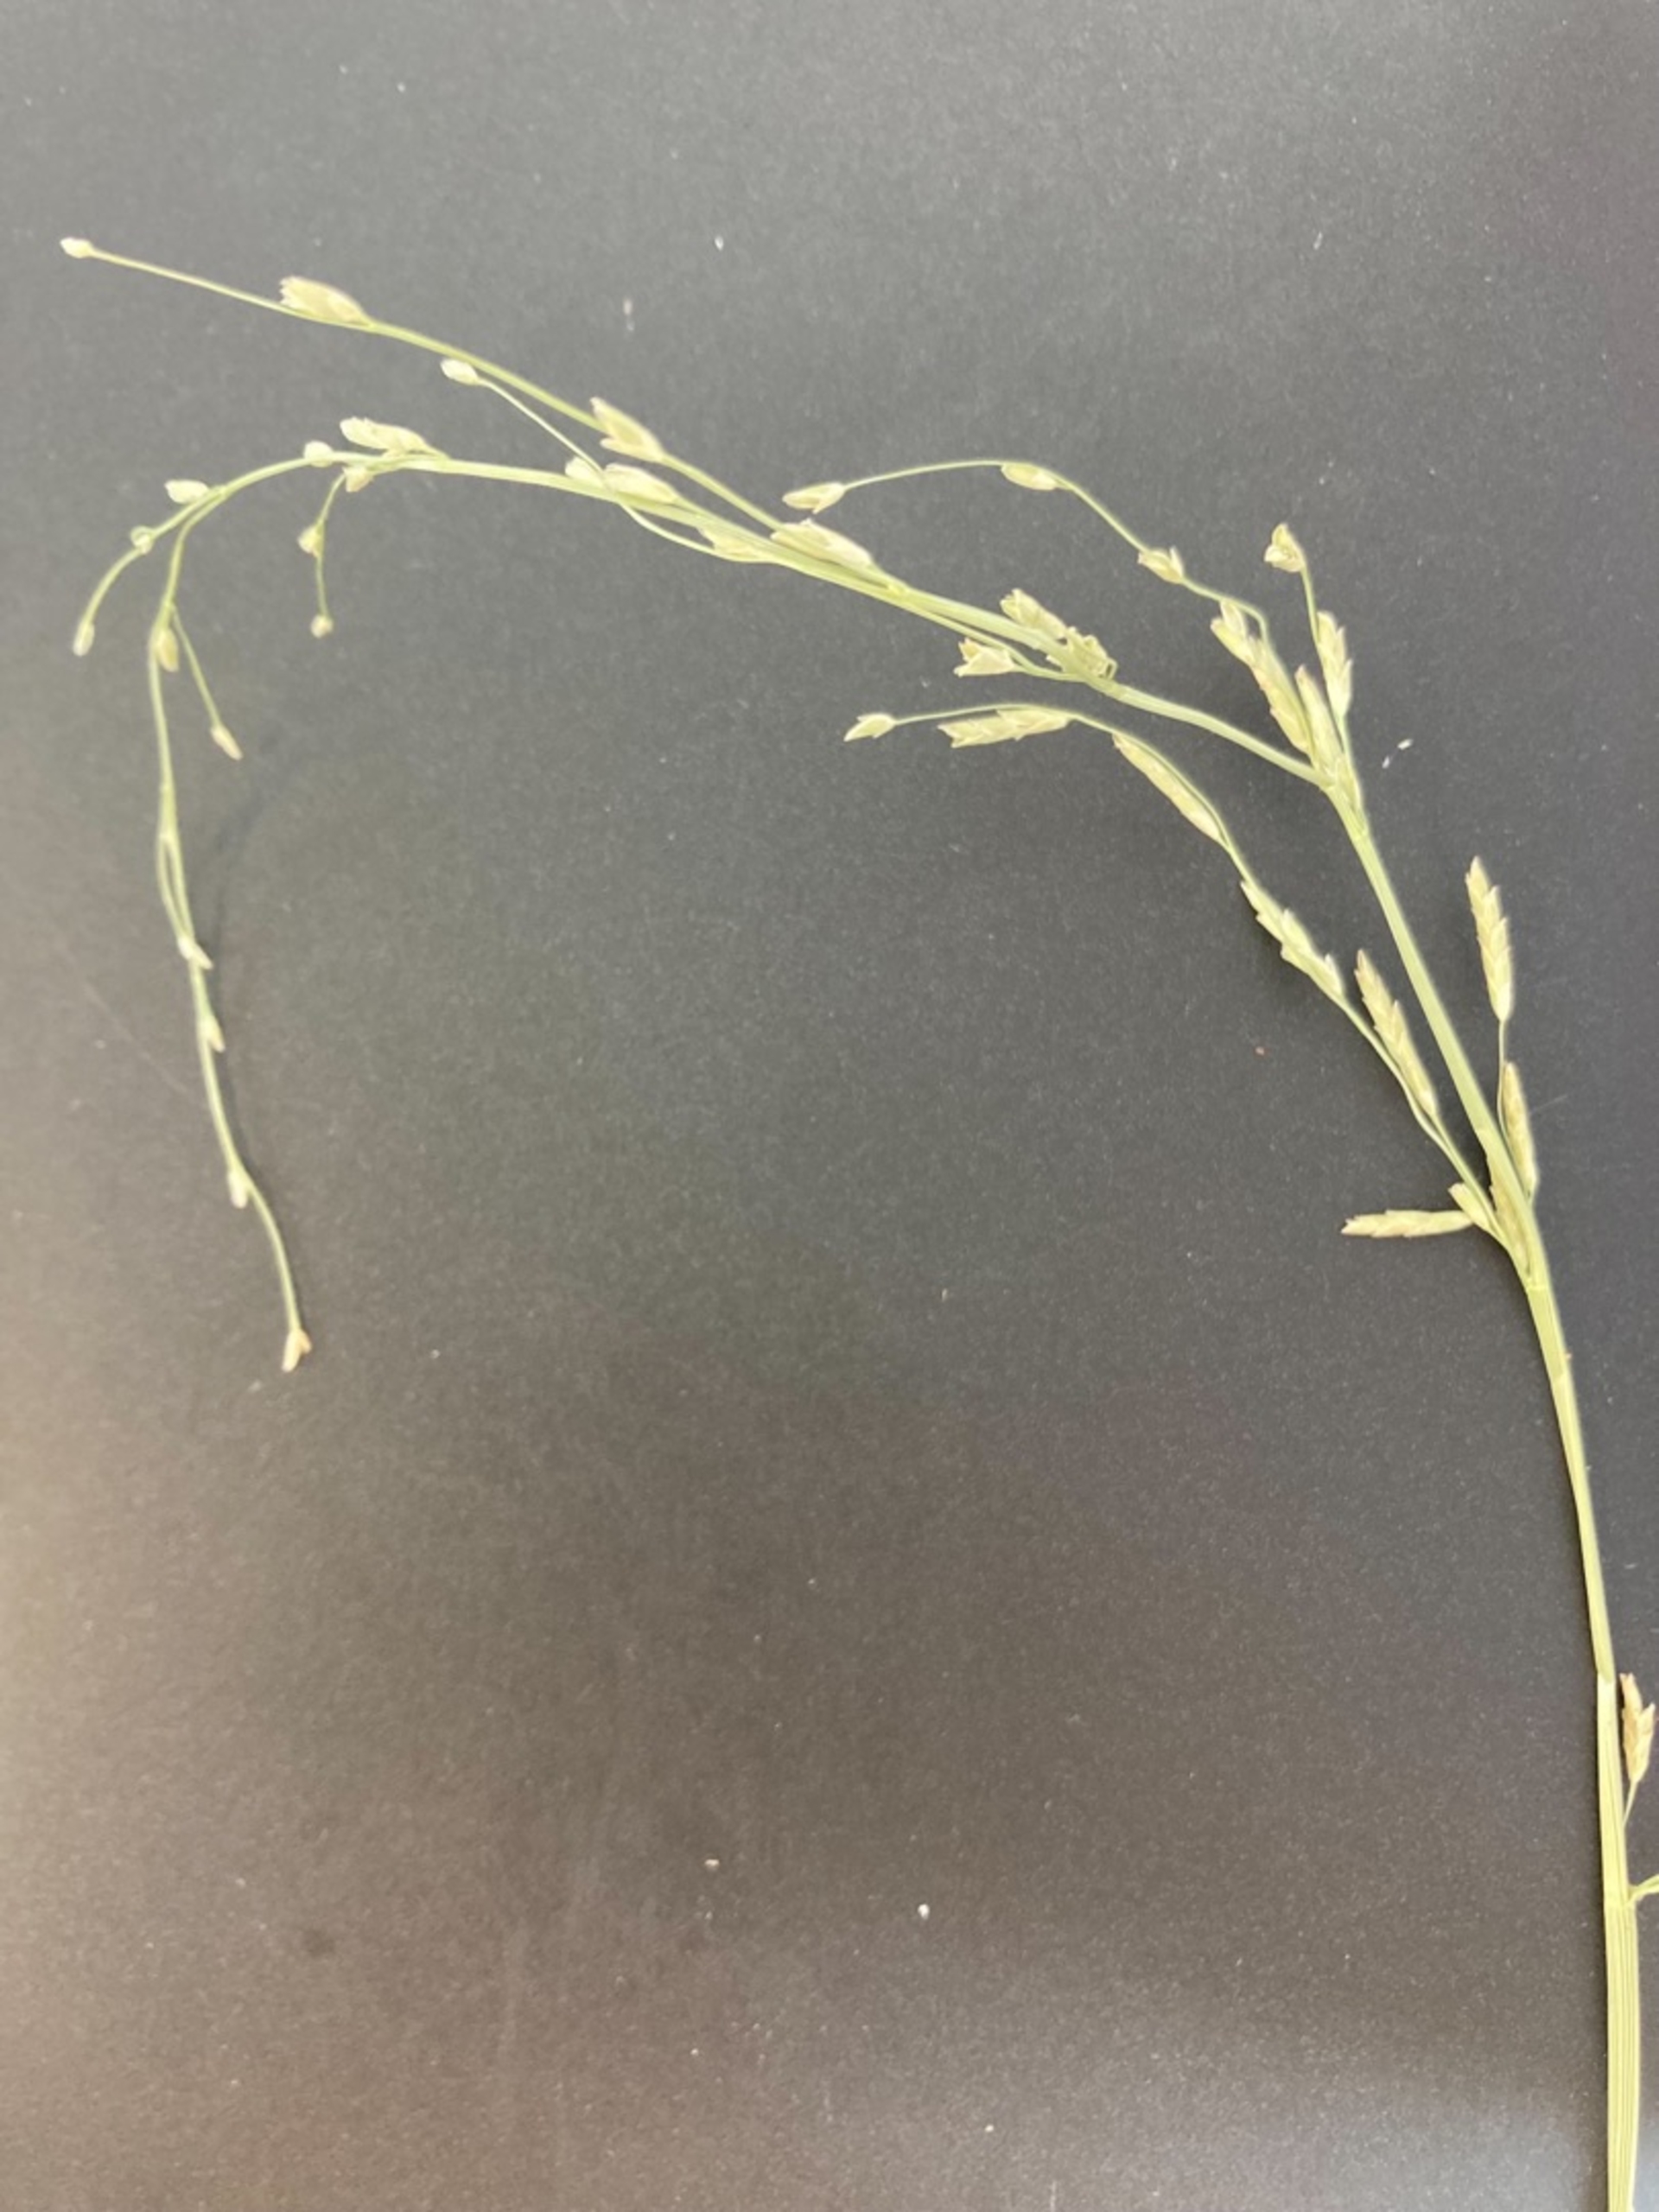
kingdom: Plantae
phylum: Tracheophyta
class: Liliopsida
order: Poales
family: Poaceae
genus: Glyceria
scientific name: Glyceria notata
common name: Butblomstret sødgræs
